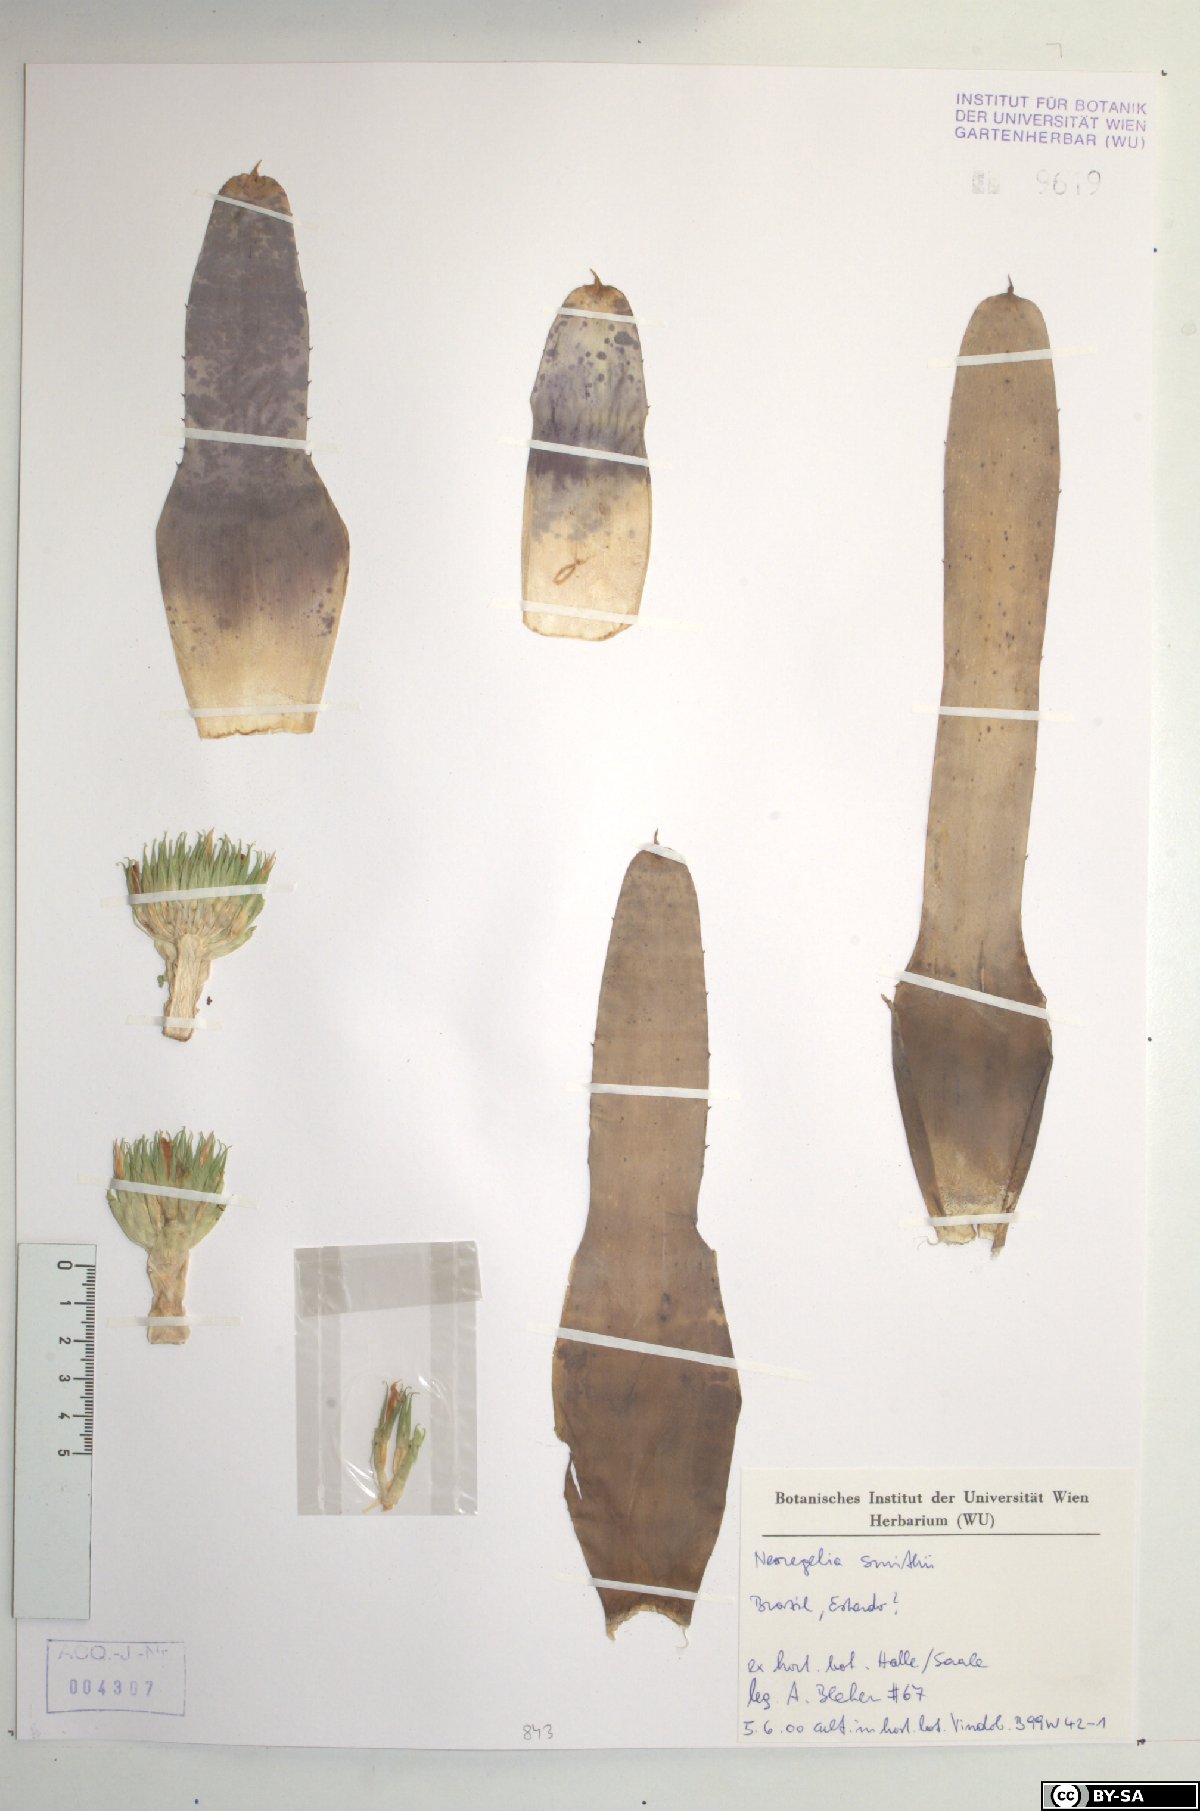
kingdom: Plantae
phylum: Tracheophyta
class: Liliopsida
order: Poales
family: Bromeliaceae
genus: Neoregelia
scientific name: Neoregelia smithii
